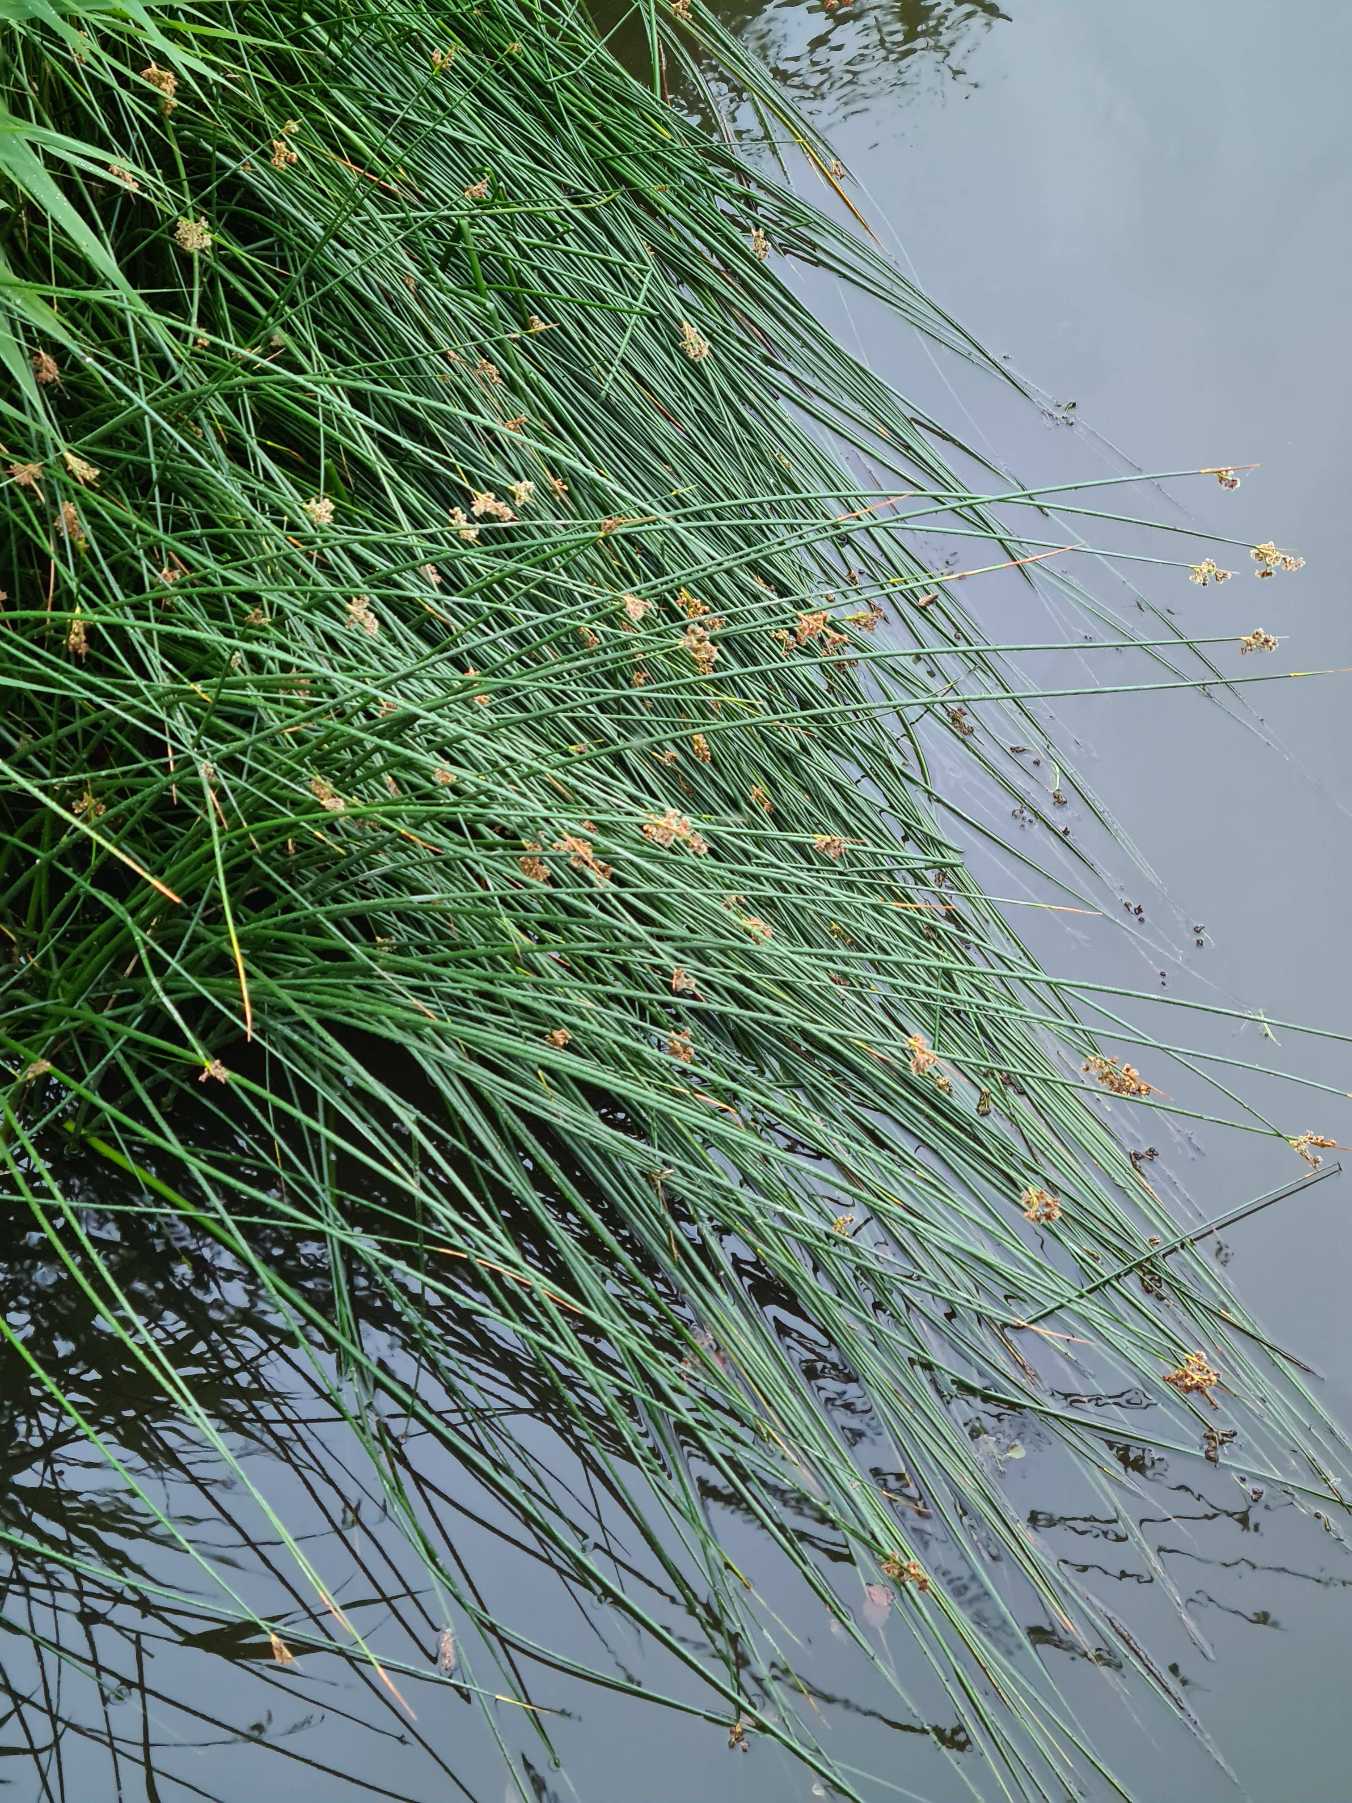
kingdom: Plantae
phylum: Tracheophyta
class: Liliopsida
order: Poales
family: Cyperaceae
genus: Schoenoplectus
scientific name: Schoenoplectus lacustris
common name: Sø-kogleaks
